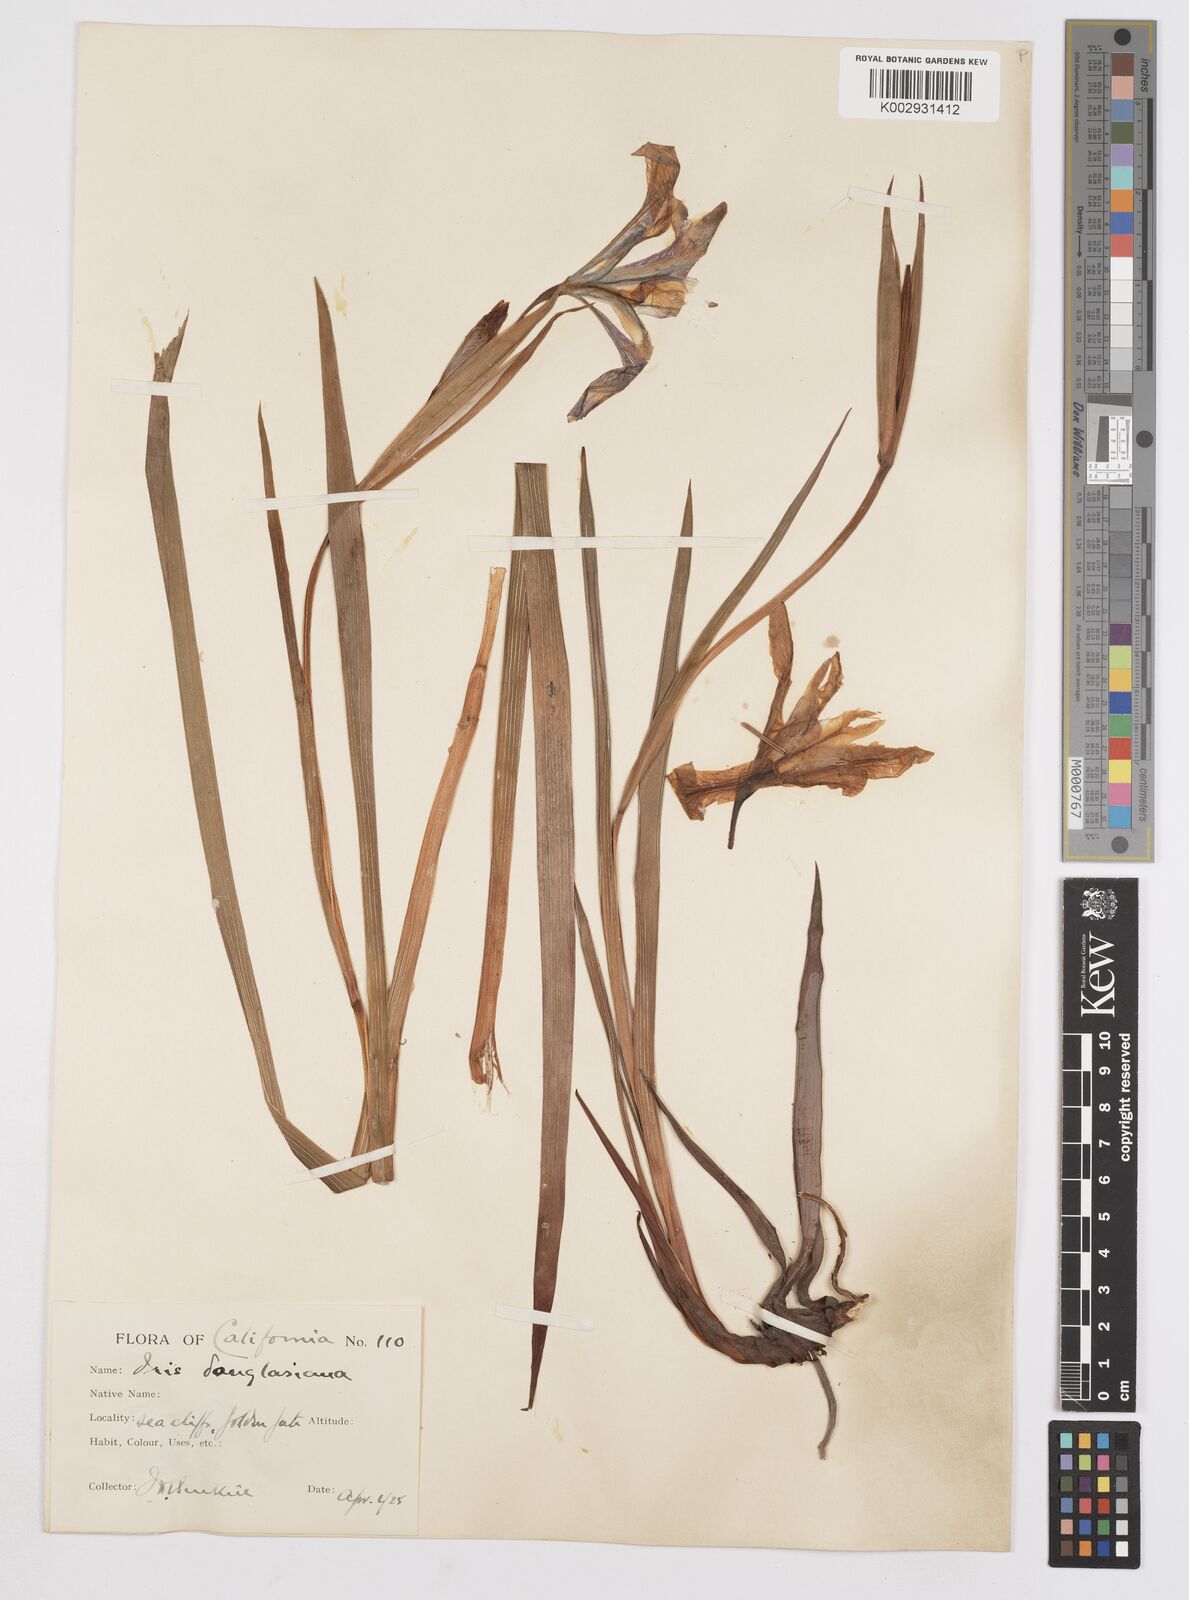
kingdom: Plantae
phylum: Tracheophyta
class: Liliopsida
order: Asparagales
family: Iridaceae
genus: Iris
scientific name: Iris douglasiana
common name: Marin iris
